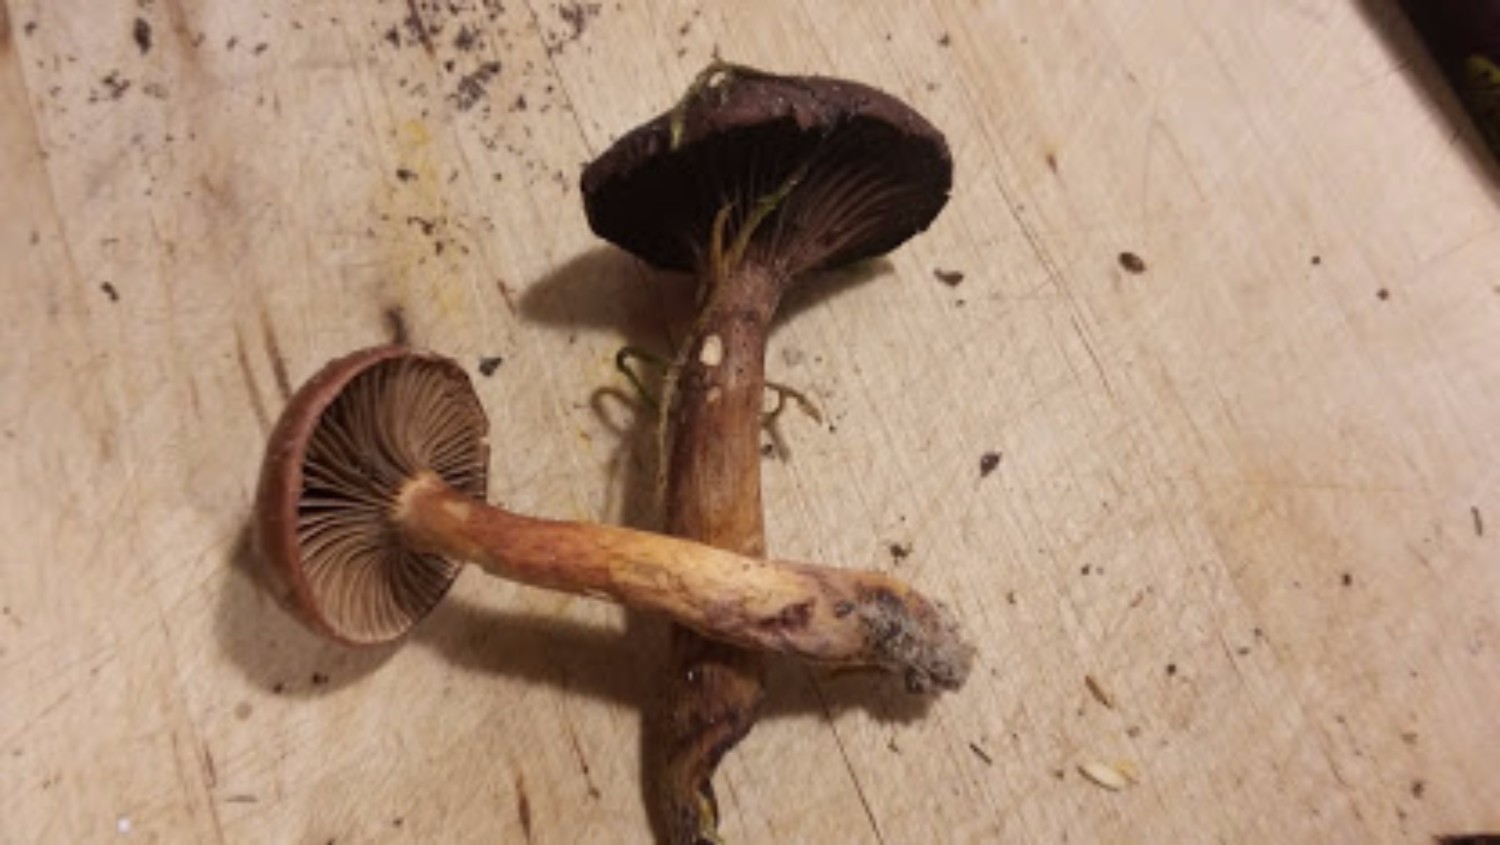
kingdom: Fungi
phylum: Basidiomycota
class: Agaricomycetes
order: Boletales
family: Gomphidiaceae
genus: Chroogomphus
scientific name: Chroogomphus rutilus
